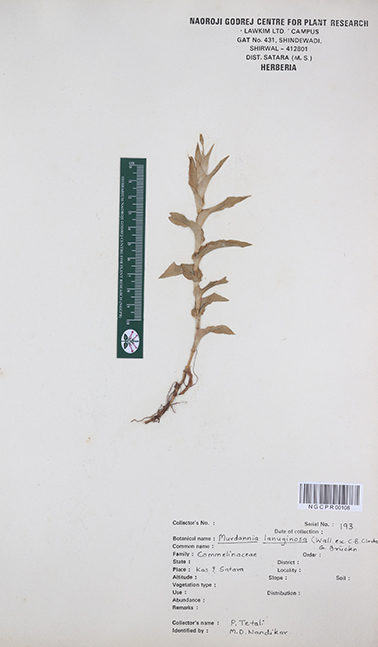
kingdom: Plantae
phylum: Tracheophyta
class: Liliopsida
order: Commelinales
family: Commelinaceae
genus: Murdannia
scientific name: Murdannia lanuginosa
